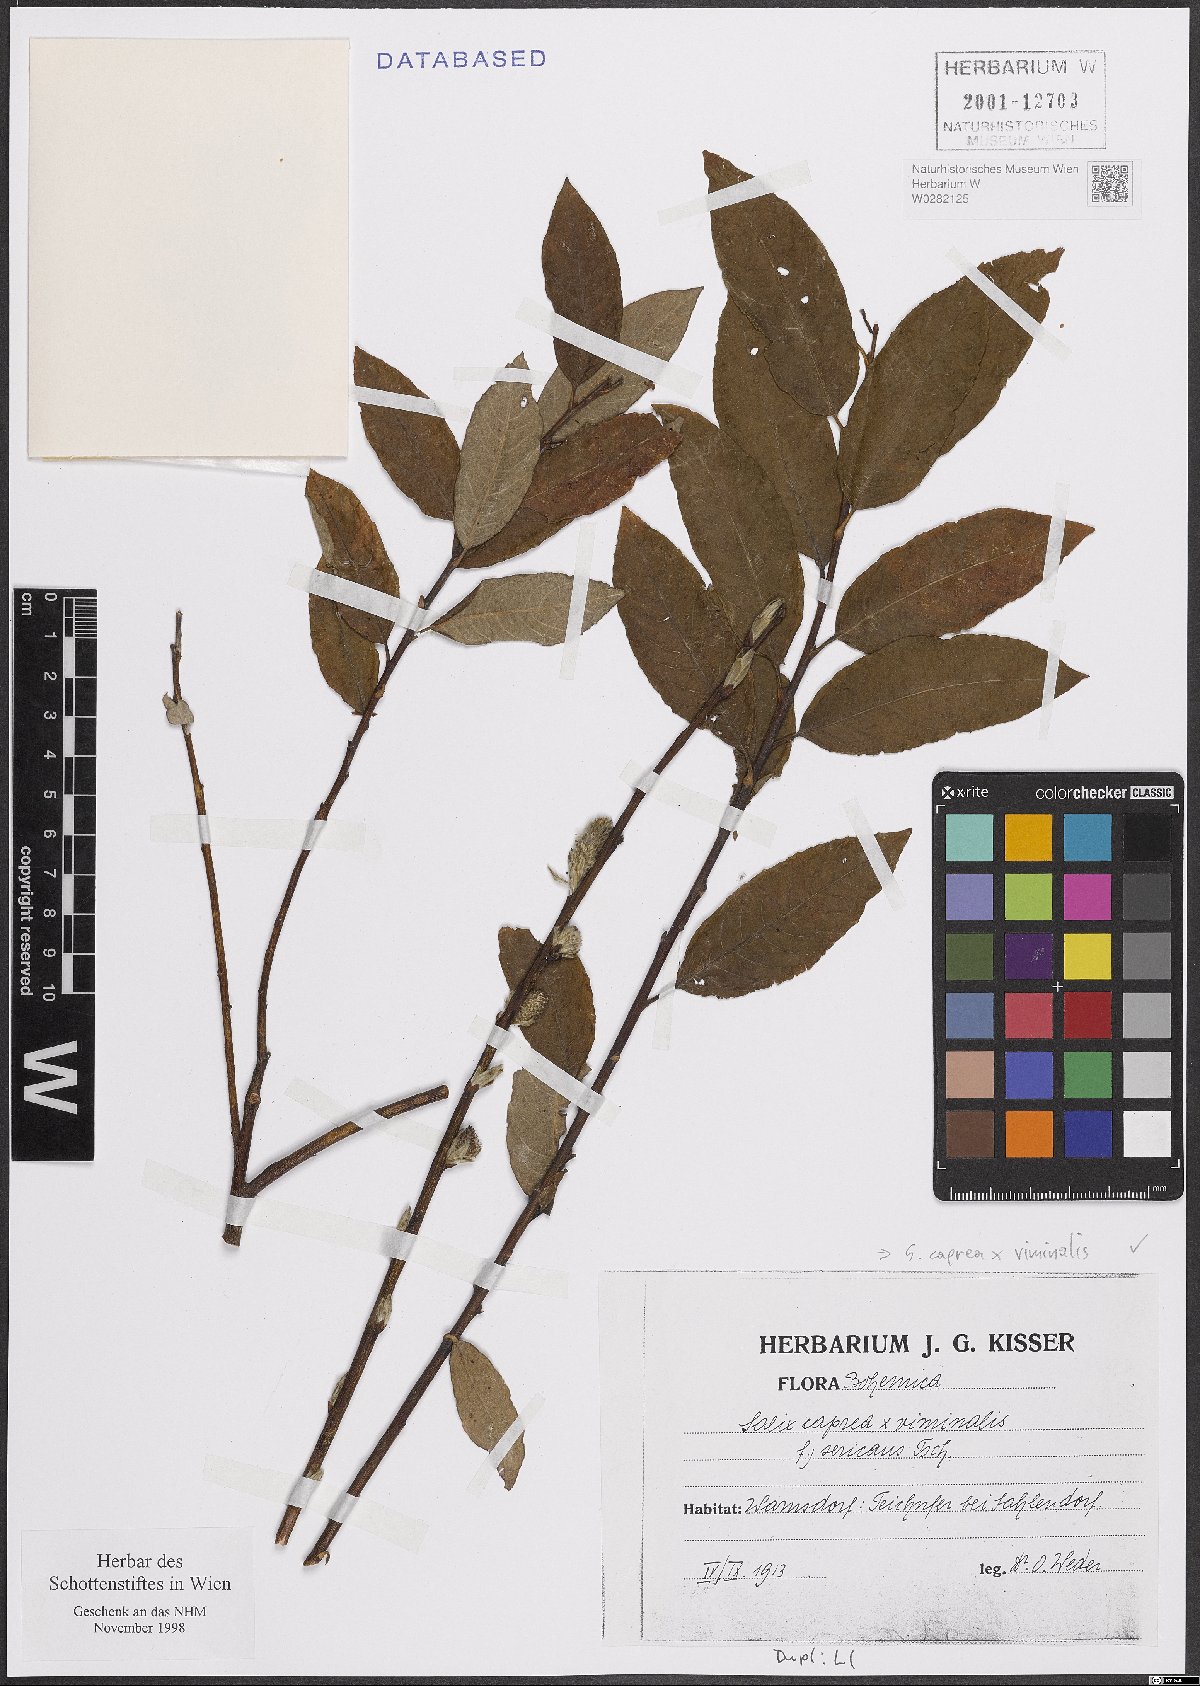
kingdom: Plantae
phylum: Tracheophyta
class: Magnoliopsida
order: Malpighiales
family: Salicaceae
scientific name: Salicaceae
